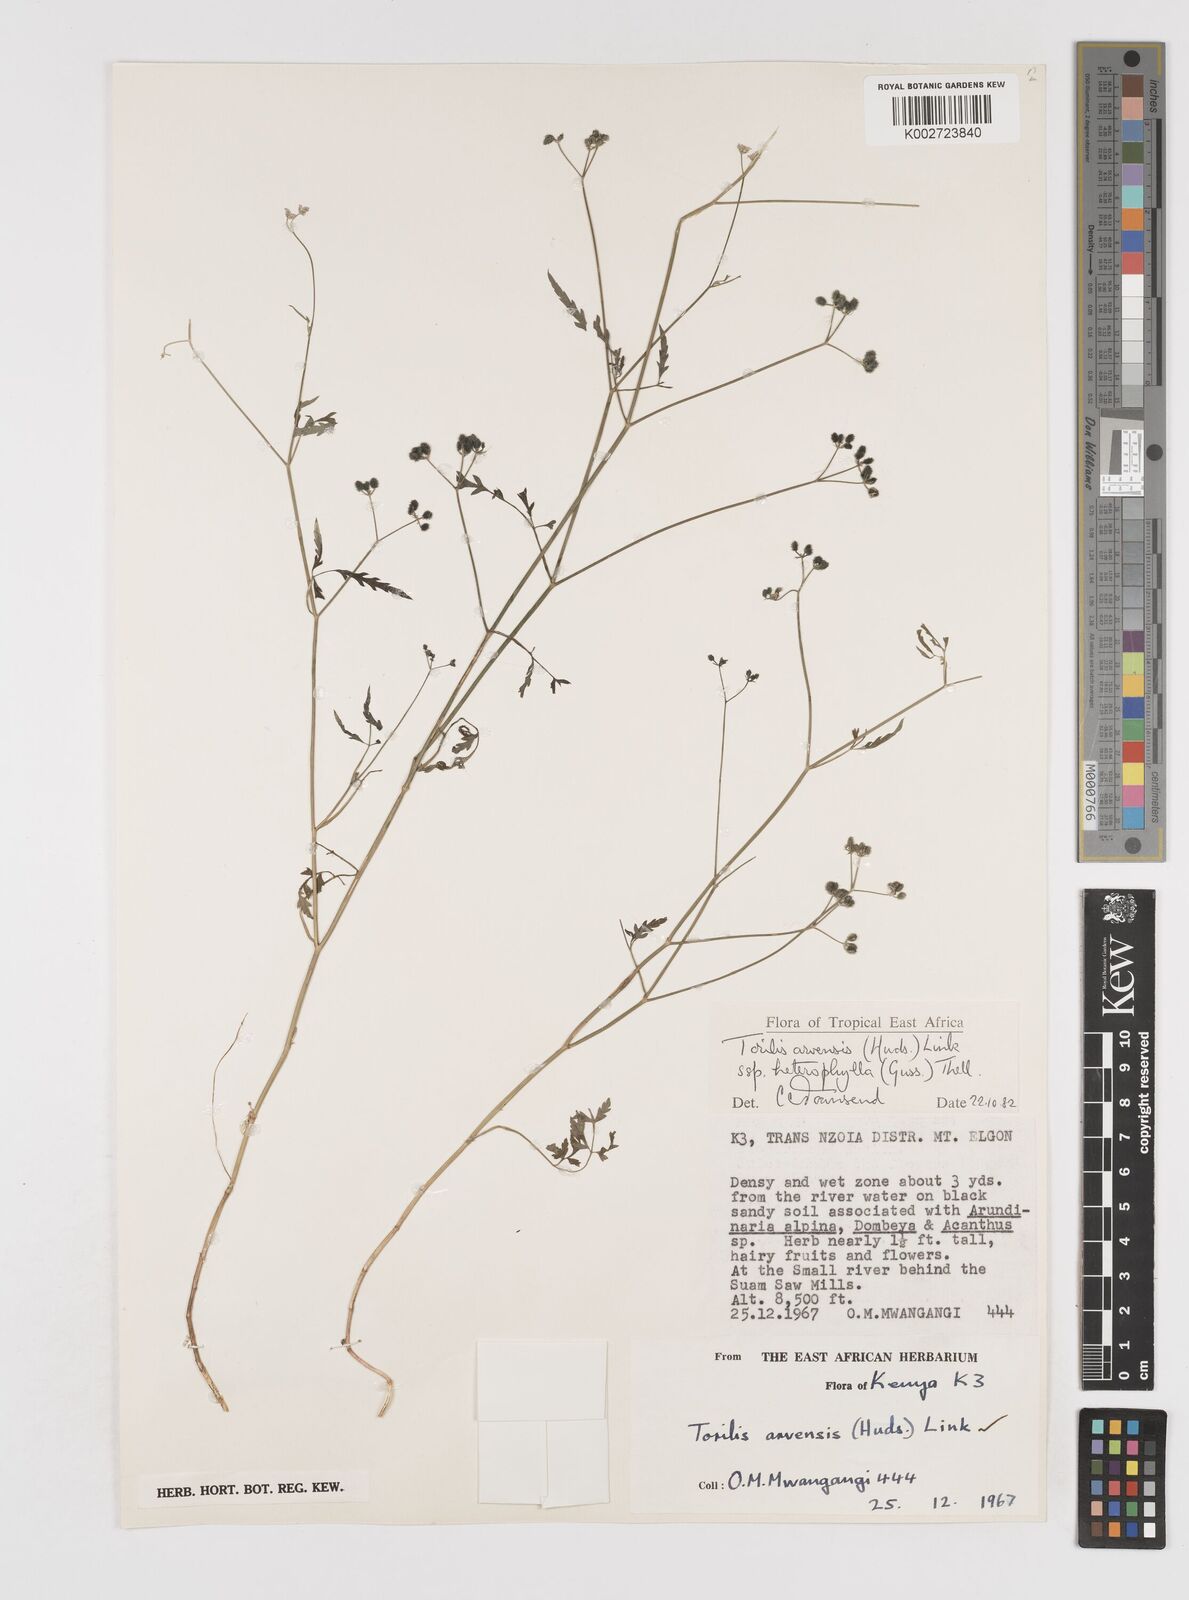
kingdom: Plantae
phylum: Tracheophyta
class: Magnoliopsida
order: Apiales
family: Apiaceae
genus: Torilis
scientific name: Torilis arvensis
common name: Spreading hedge-parsley
